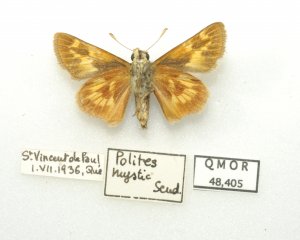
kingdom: Animalia
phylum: Arthropoda
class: Insecta
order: Lepidoptera
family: Hesperiidae
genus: Polites
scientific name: Polites
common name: Long Dash Skipper
